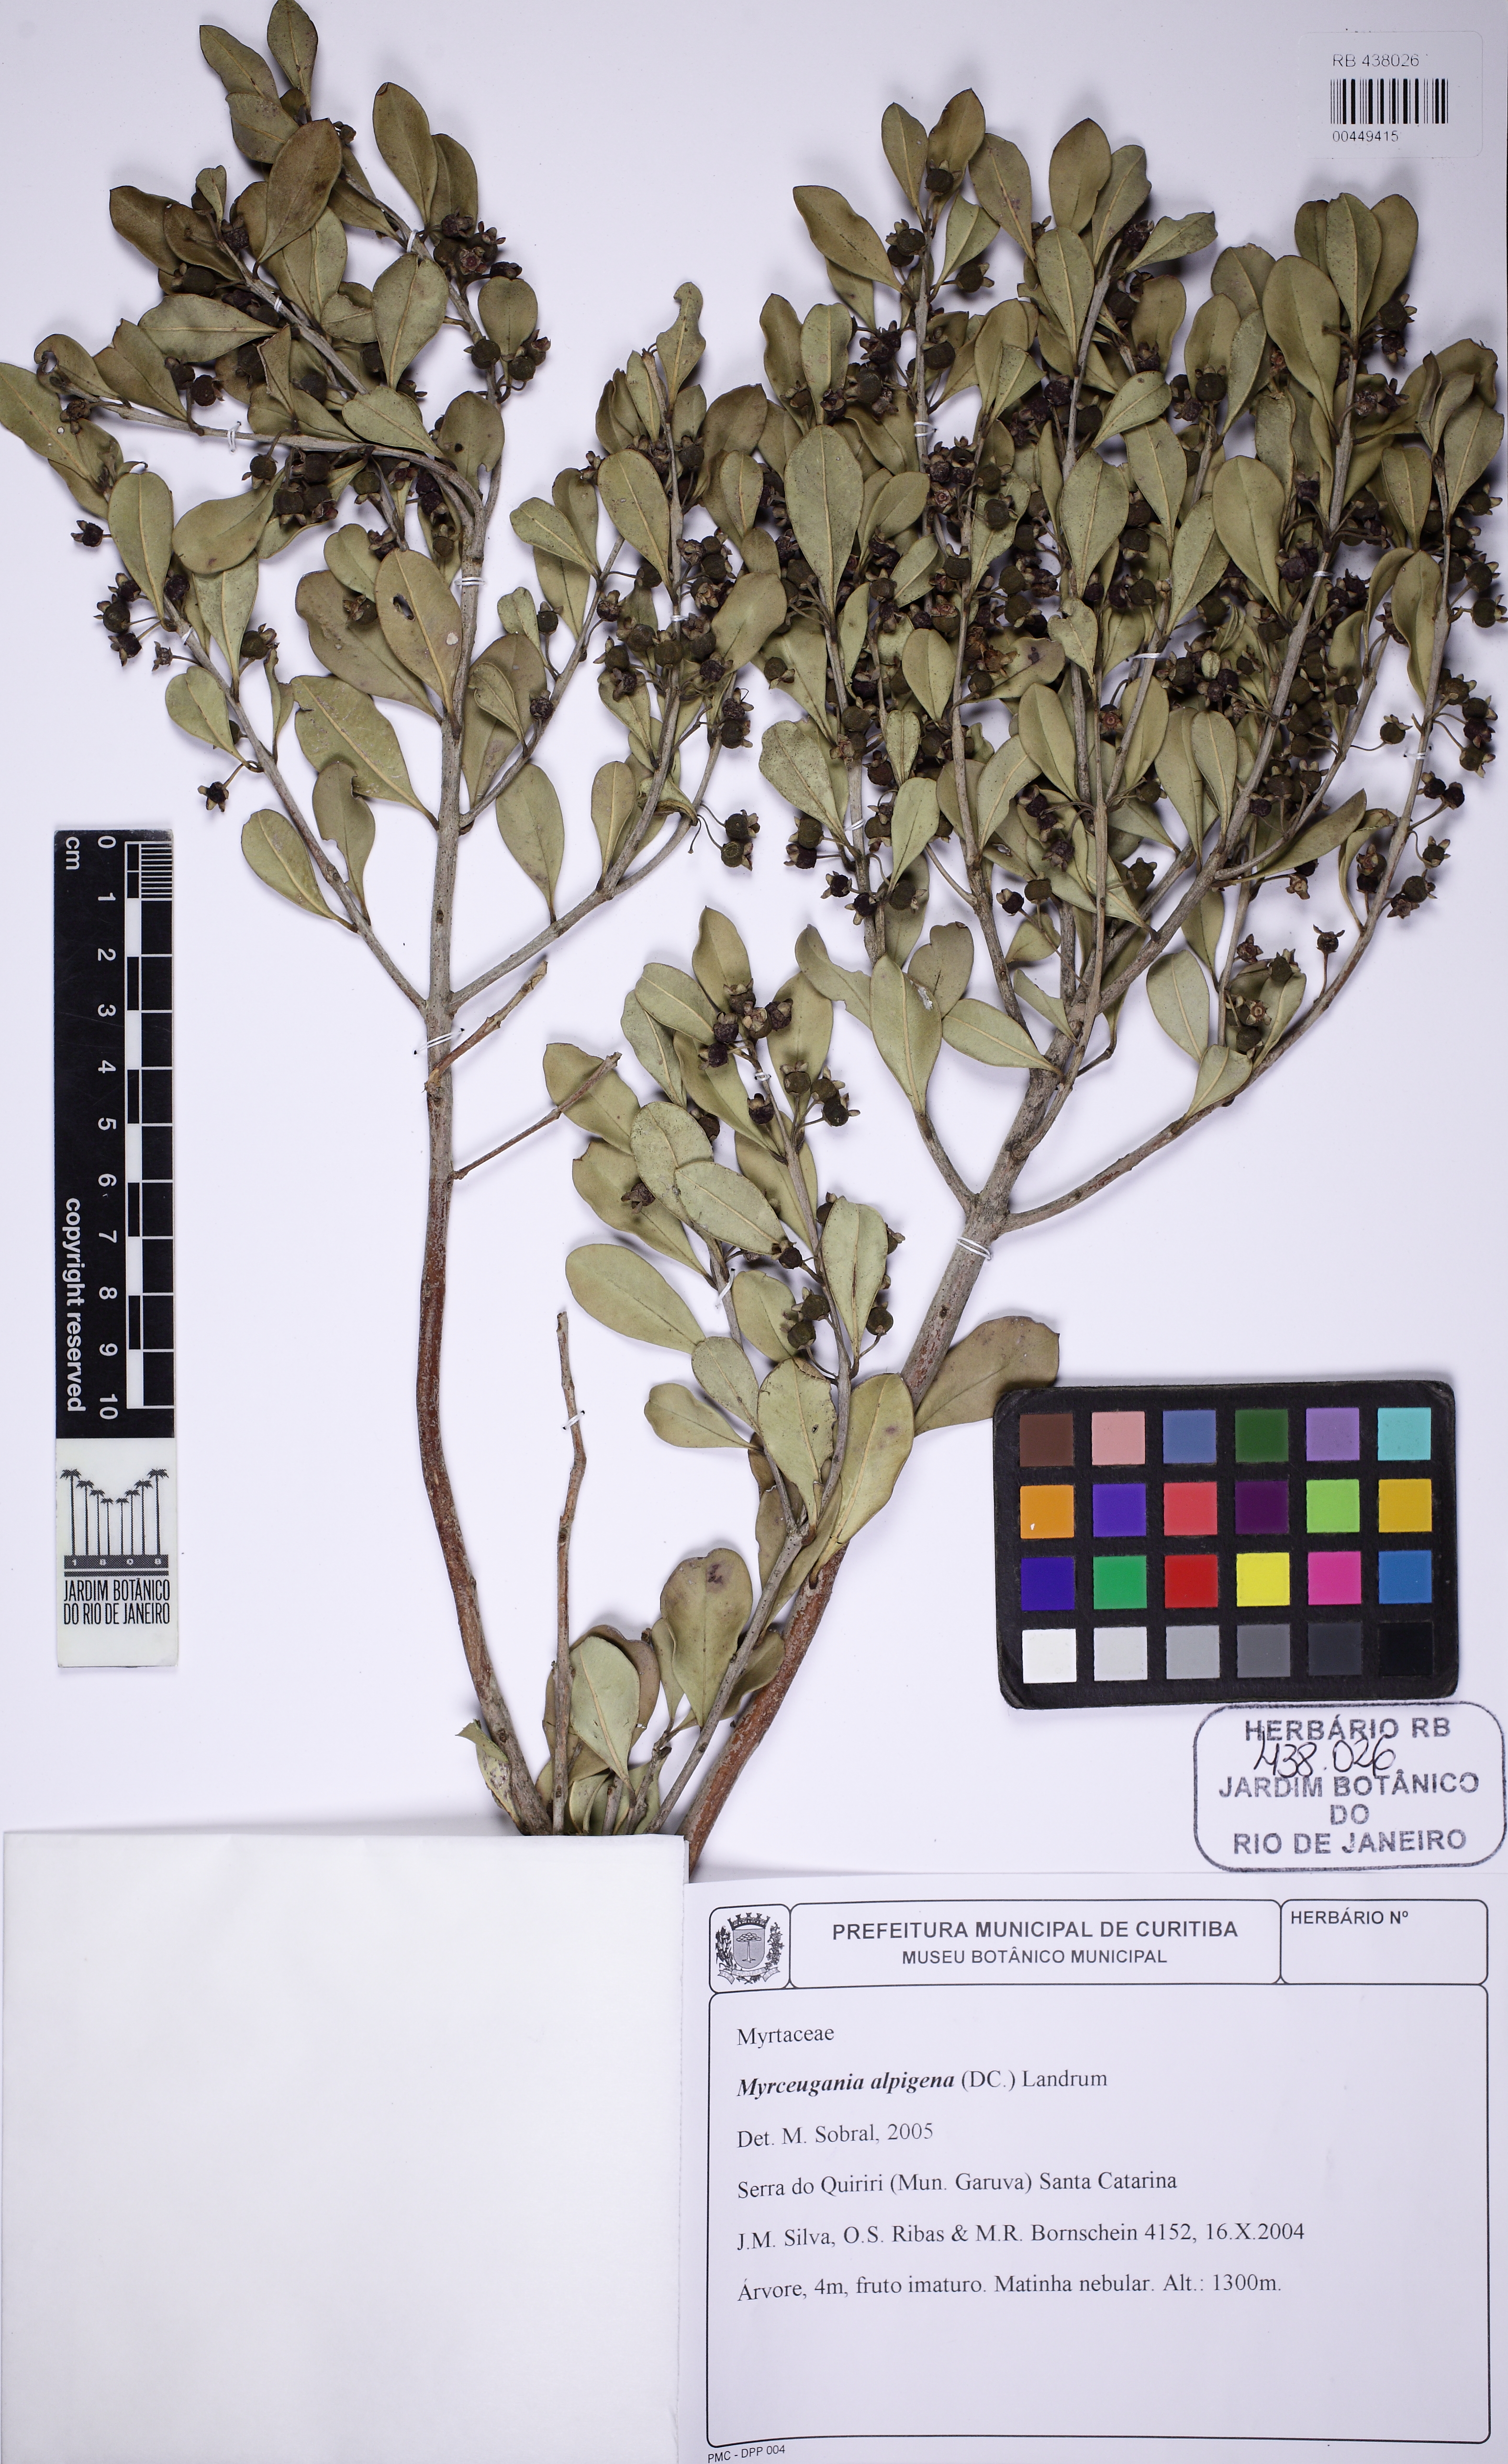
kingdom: Plantae
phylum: Tracheophyta
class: Magnoliopsida
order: Myrtales
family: Myrtaceae
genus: Myrceugenia
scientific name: Myrceugenia alpigena
